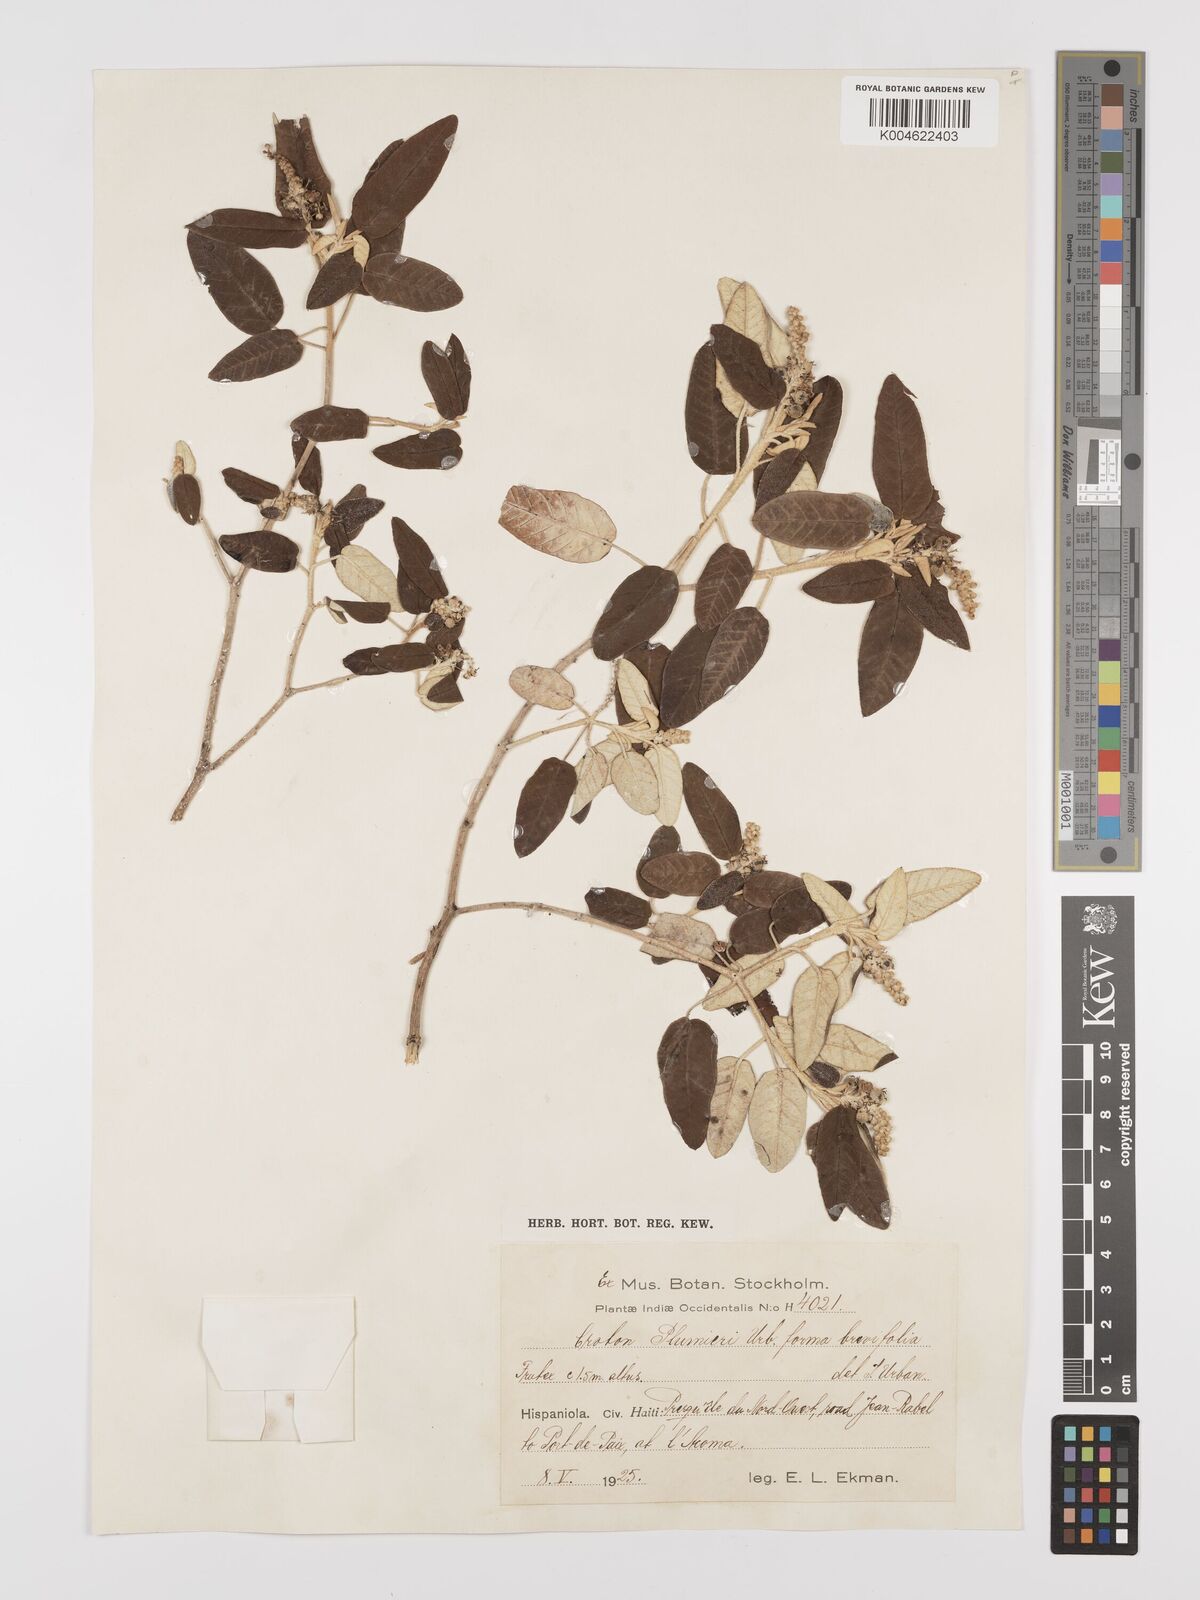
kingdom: Plantae
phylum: Tracheophyta
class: Magnoliopsida
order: Malpighiales
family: Euphorbiaceae
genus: Croton
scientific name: Croton vaillantii
